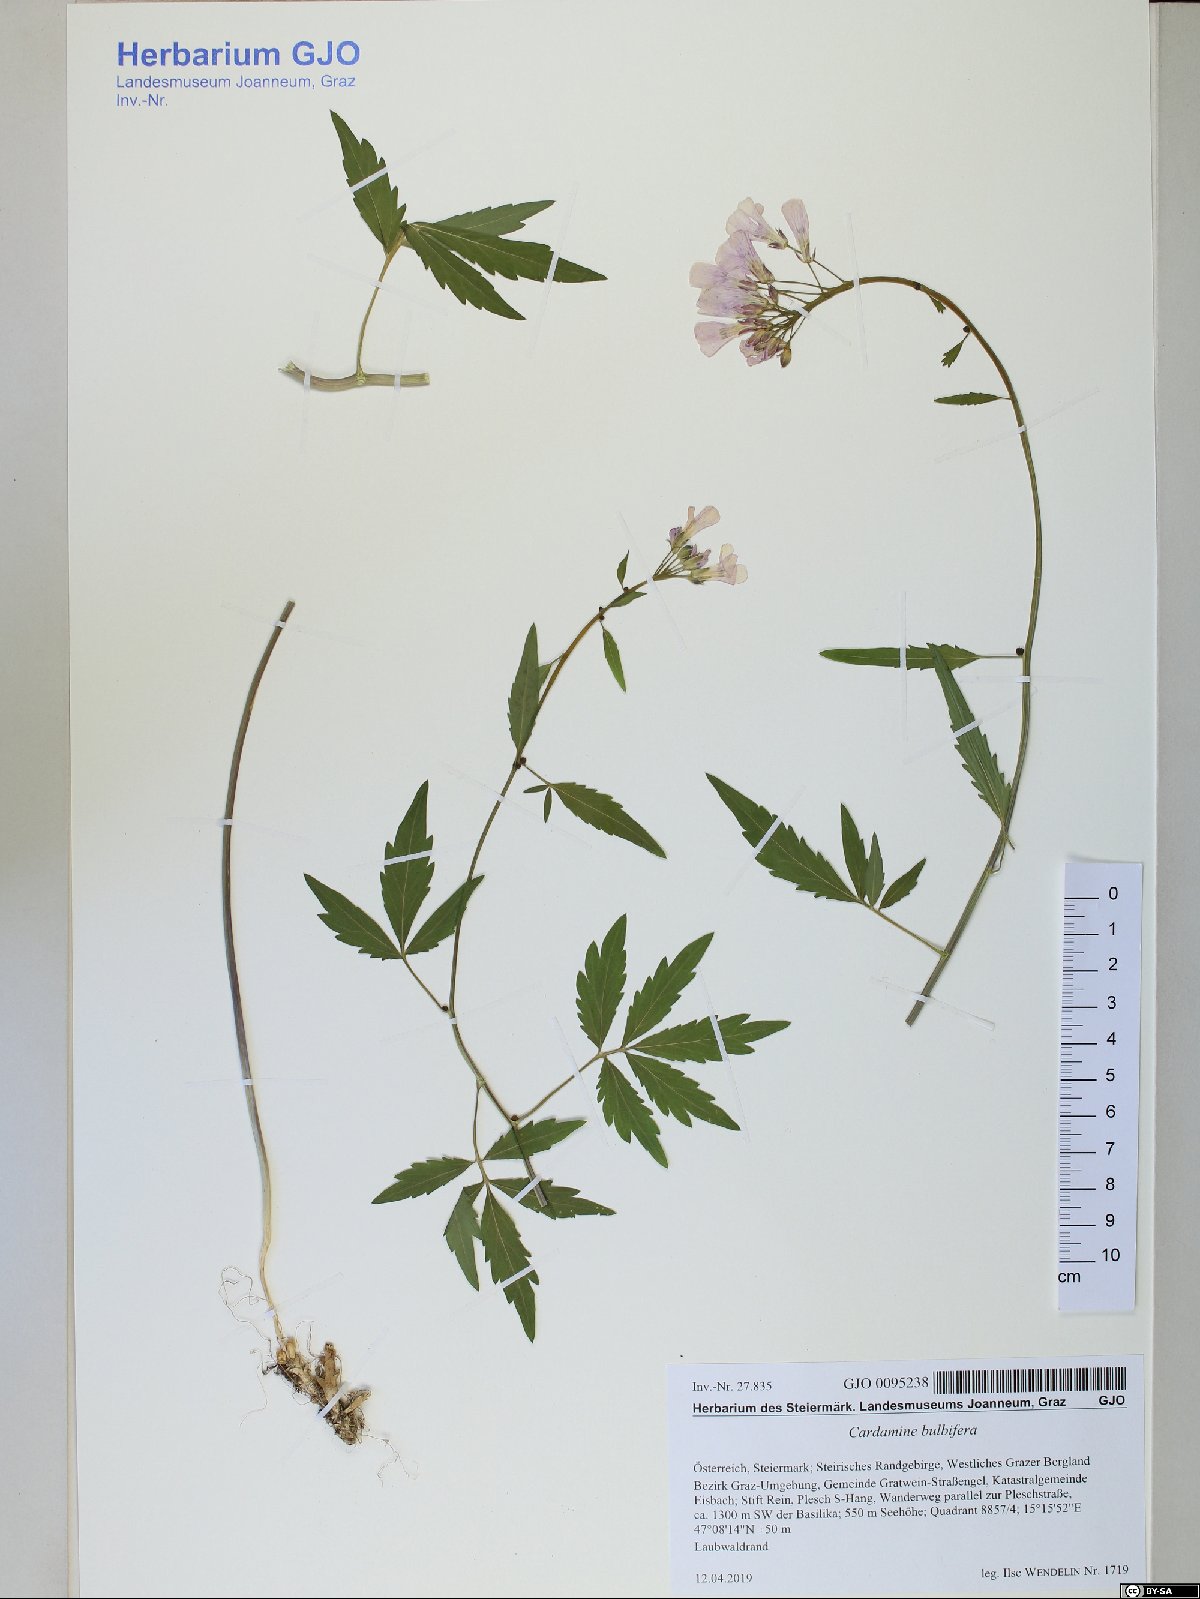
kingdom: Plantae
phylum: Tracheophyta
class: Magnoliopsida
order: Brassicales
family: Brassicaceae
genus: Cardamine
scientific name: Cardamine bulbifera
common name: Coralroot bittercress
